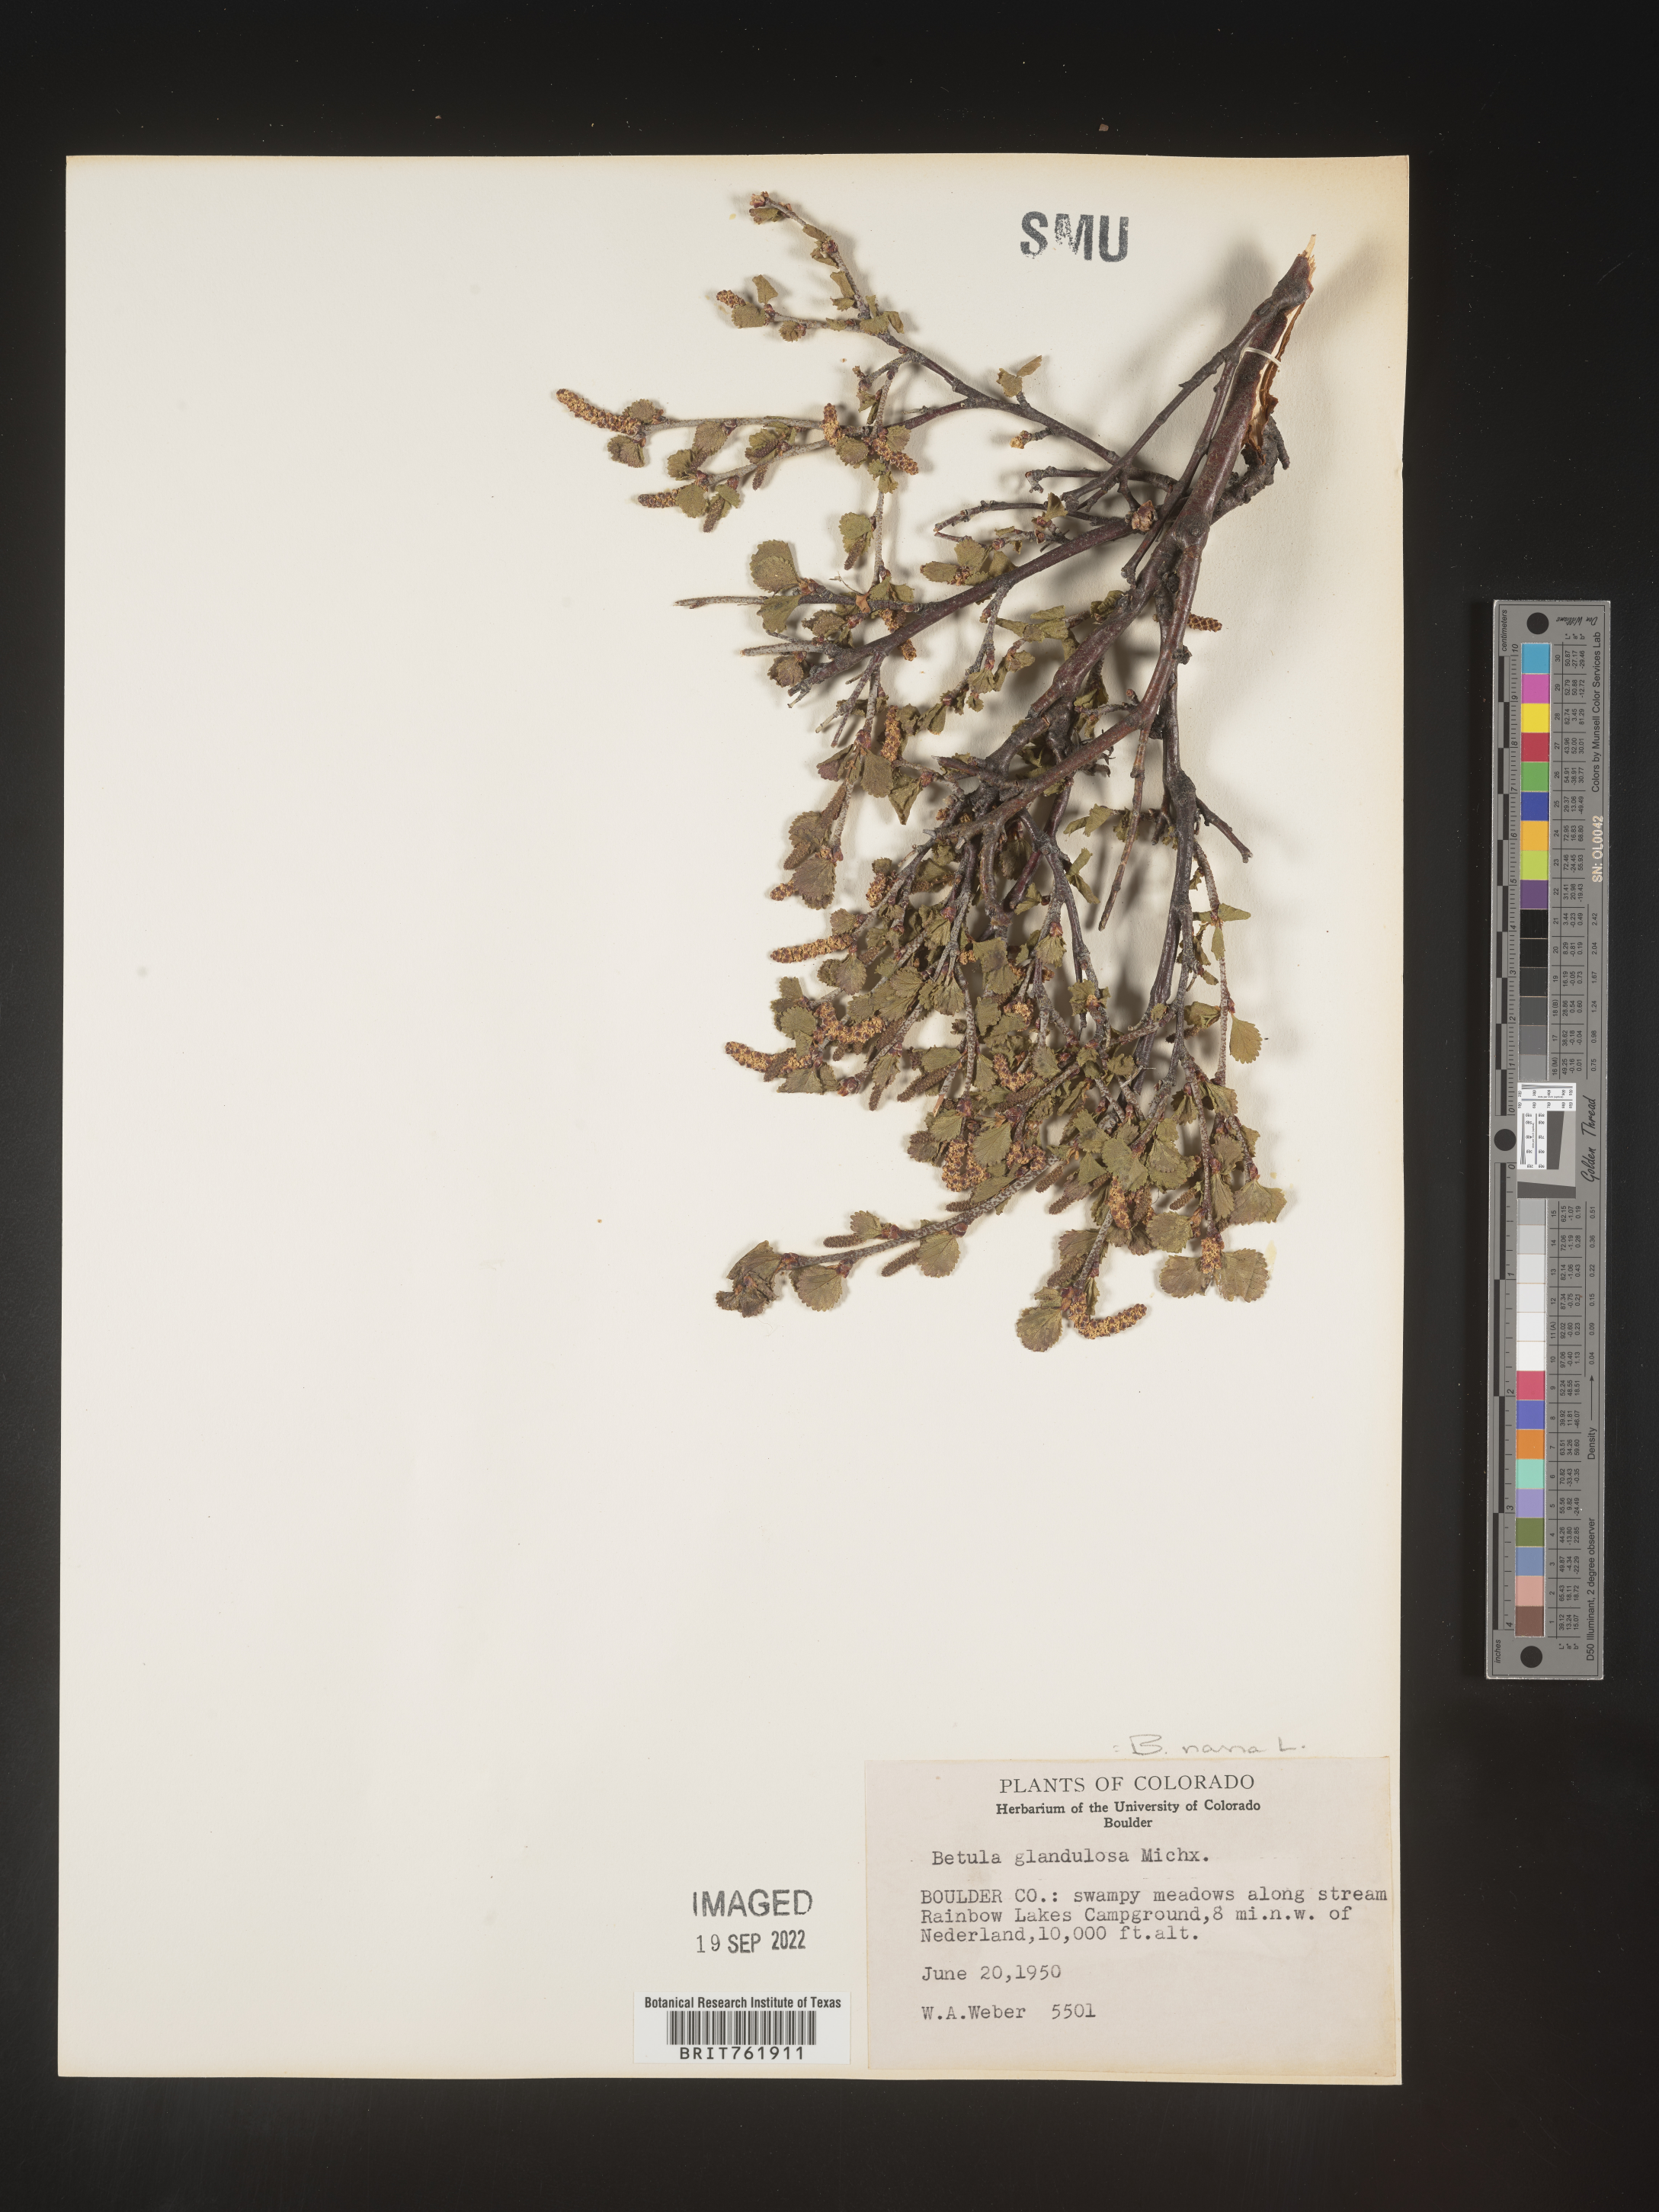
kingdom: Plantae
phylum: Tracheophyta
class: Magnoliopsida
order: Fagales
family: Betulaceae
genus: Betula
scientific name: Betula nana
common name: Arctic dwarf birch
